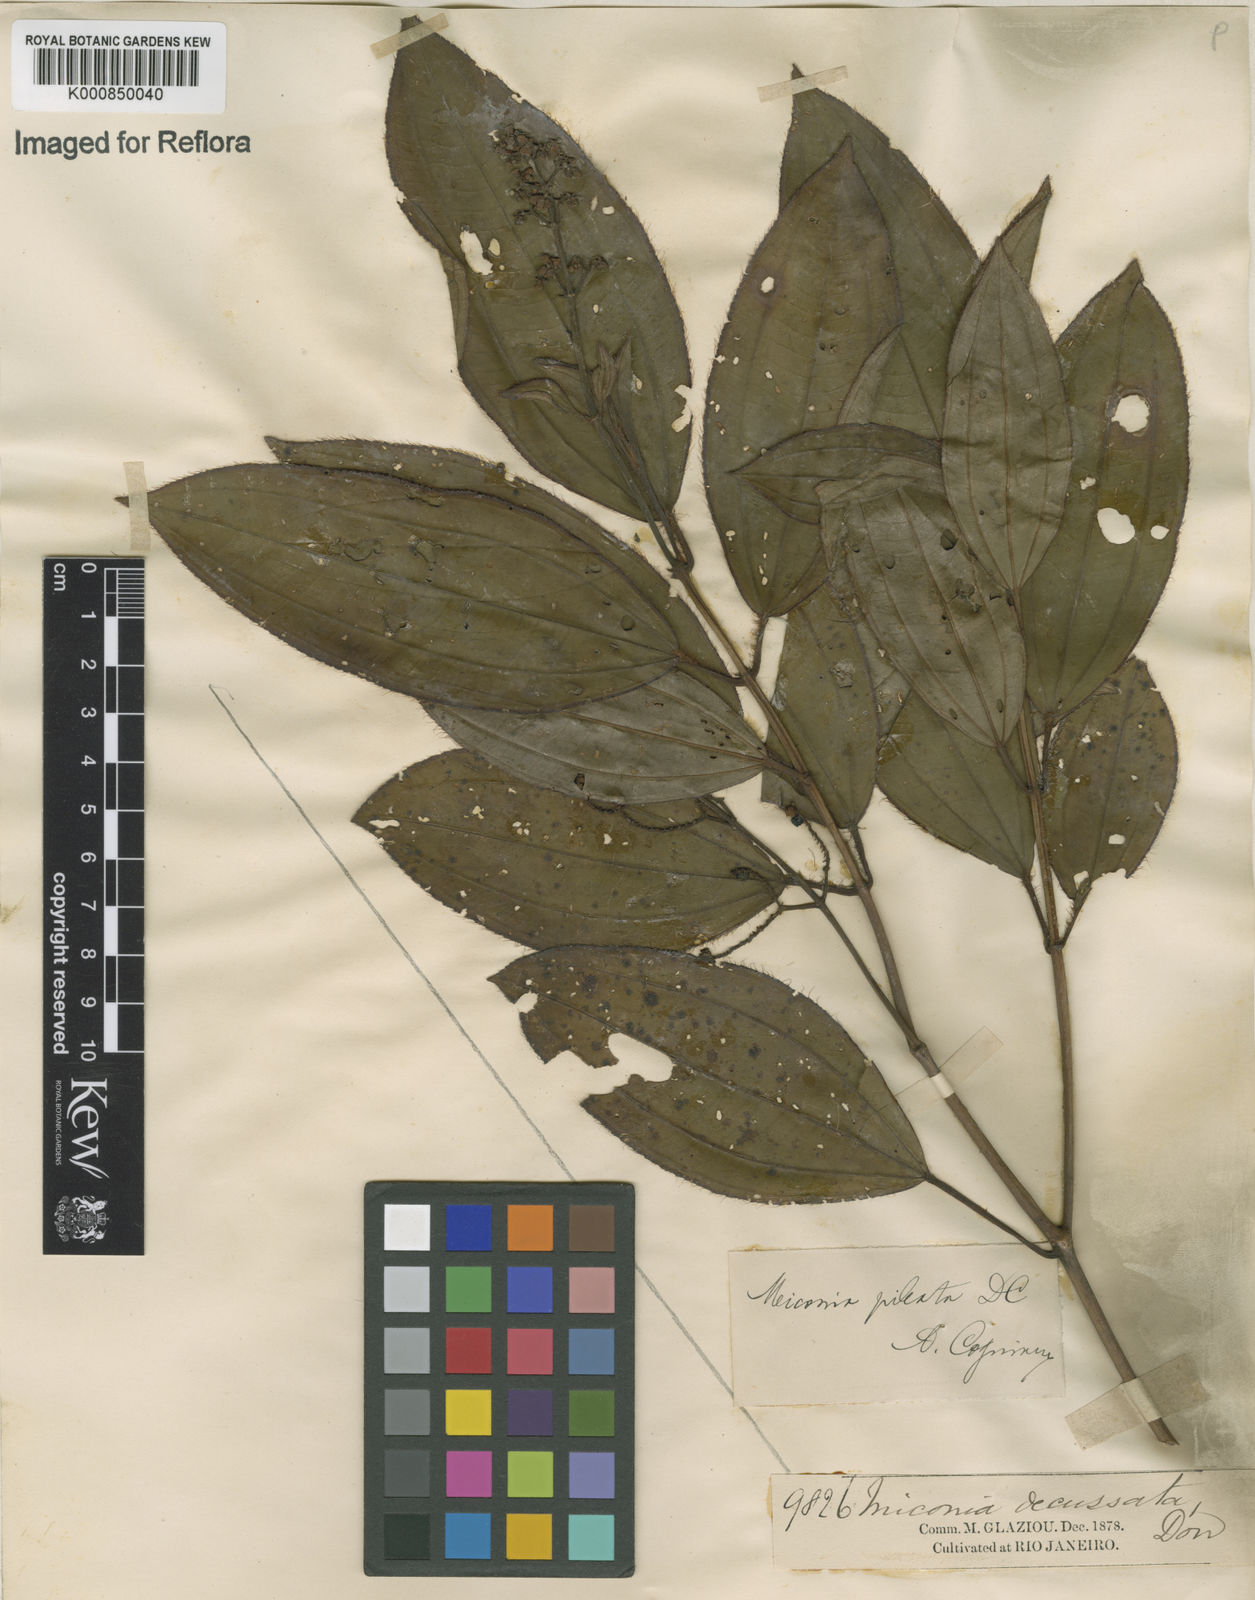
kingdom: Plantae
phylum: Tracheophyta
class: Magnoliopsida
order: Myrtales
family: Melastomataceae
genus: Miconia
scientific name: Miconia ciliata
